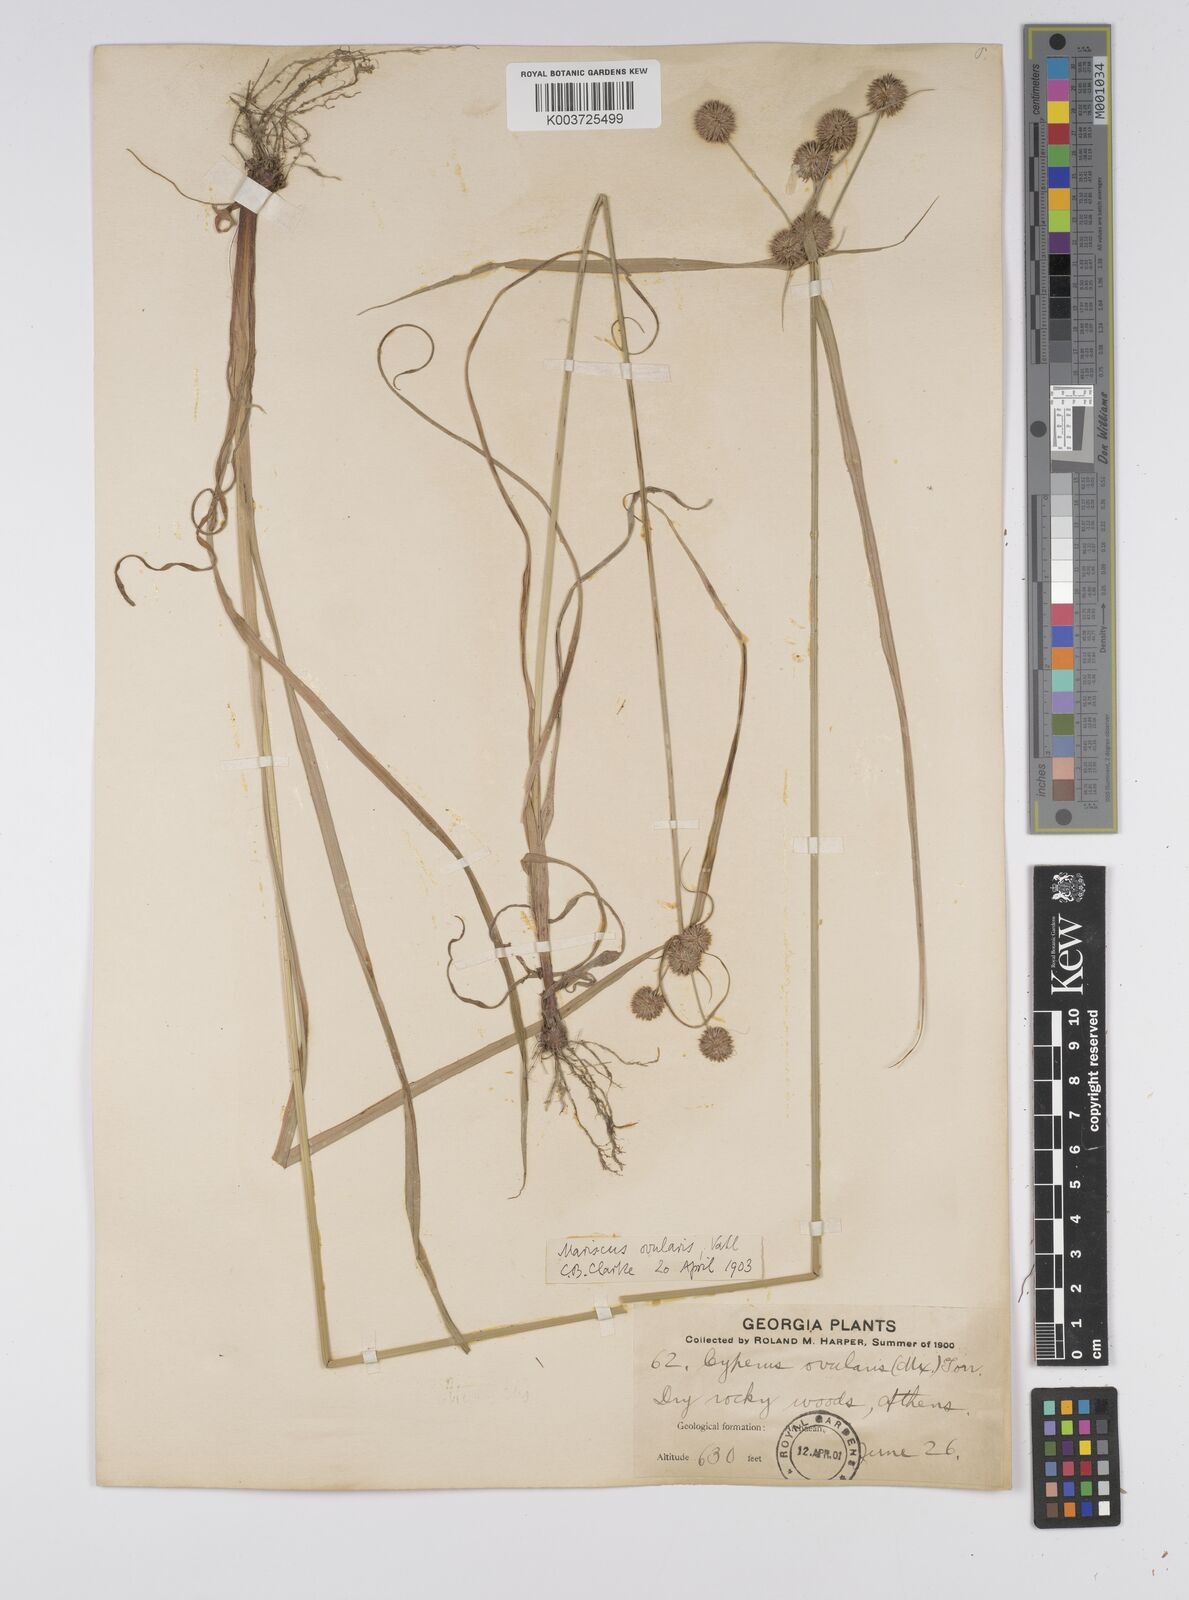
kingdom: Plantae
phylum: Tracheophyta
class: Liliopsida
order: Poales
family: Cyperaceae
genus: Cyperus
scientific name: Cyperus echinatus
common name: Teasel sedge
